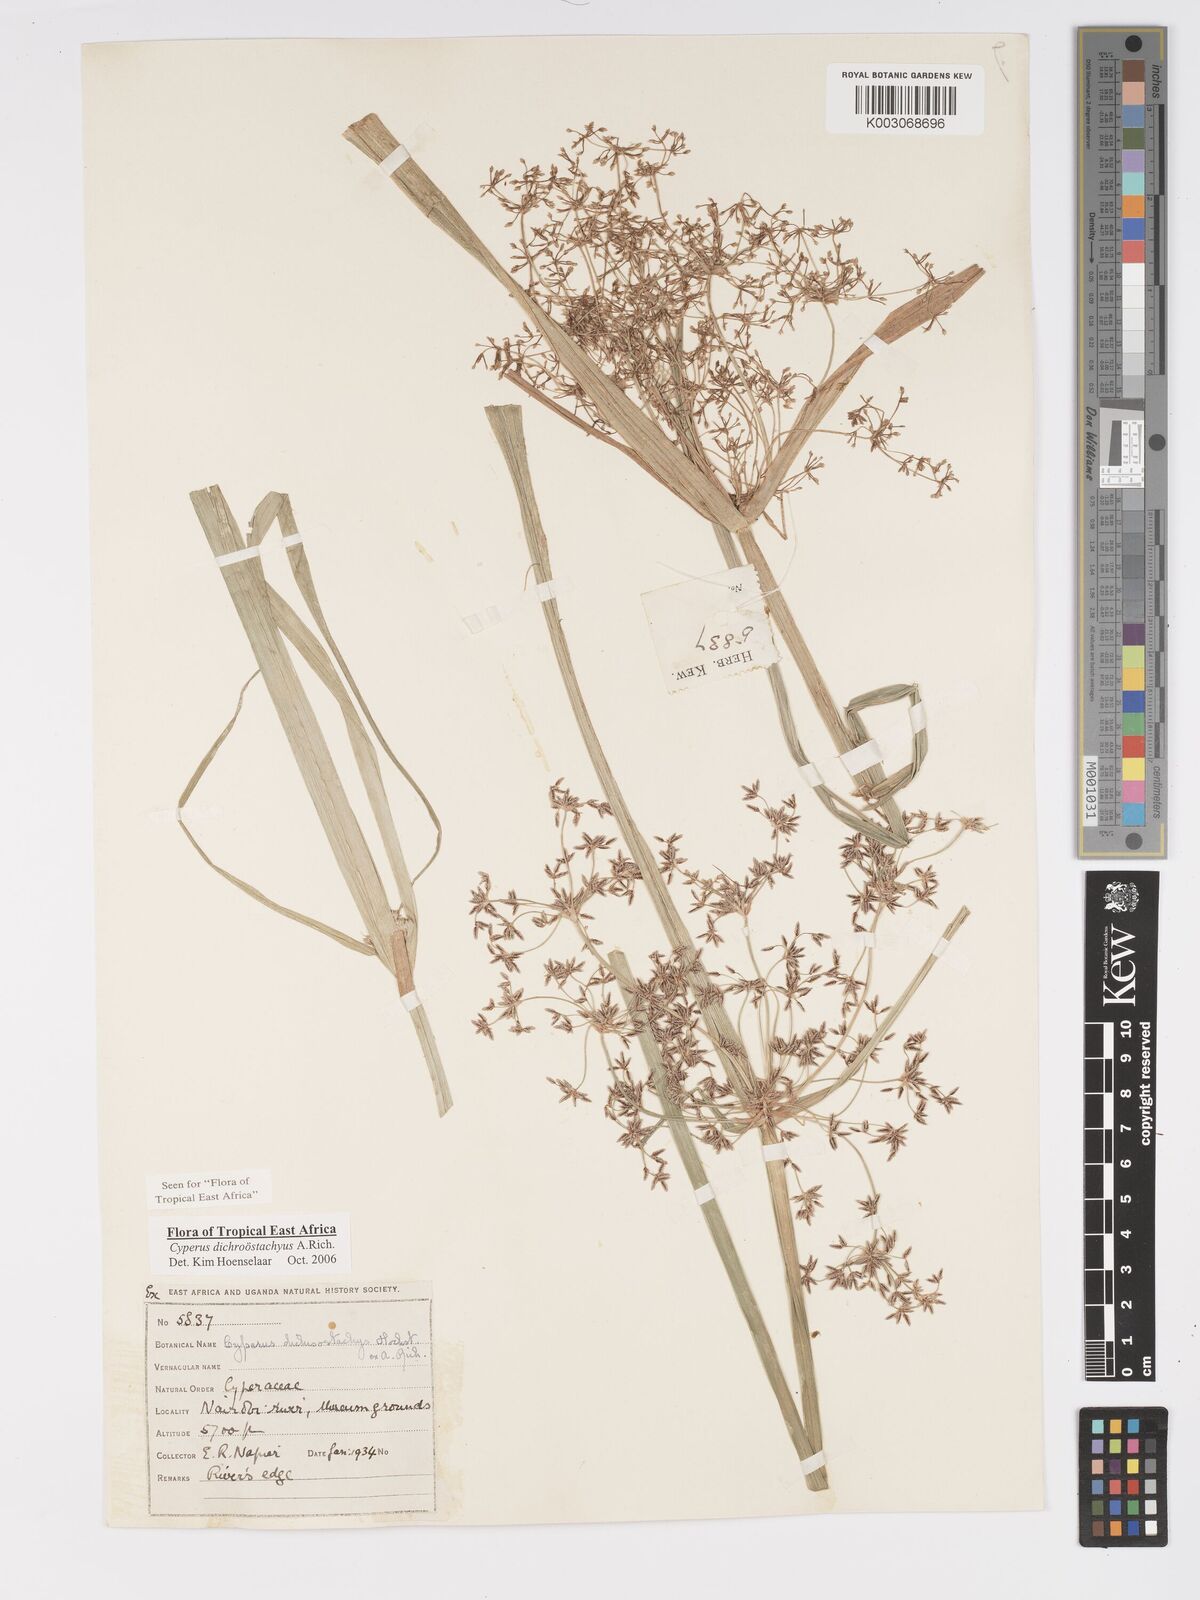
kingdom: Plantae
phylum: Tracheophyta
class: Liliopsida
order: Poales
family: Cyperaceae
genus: Cyperus
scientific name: Cyperus dichrostachyus
